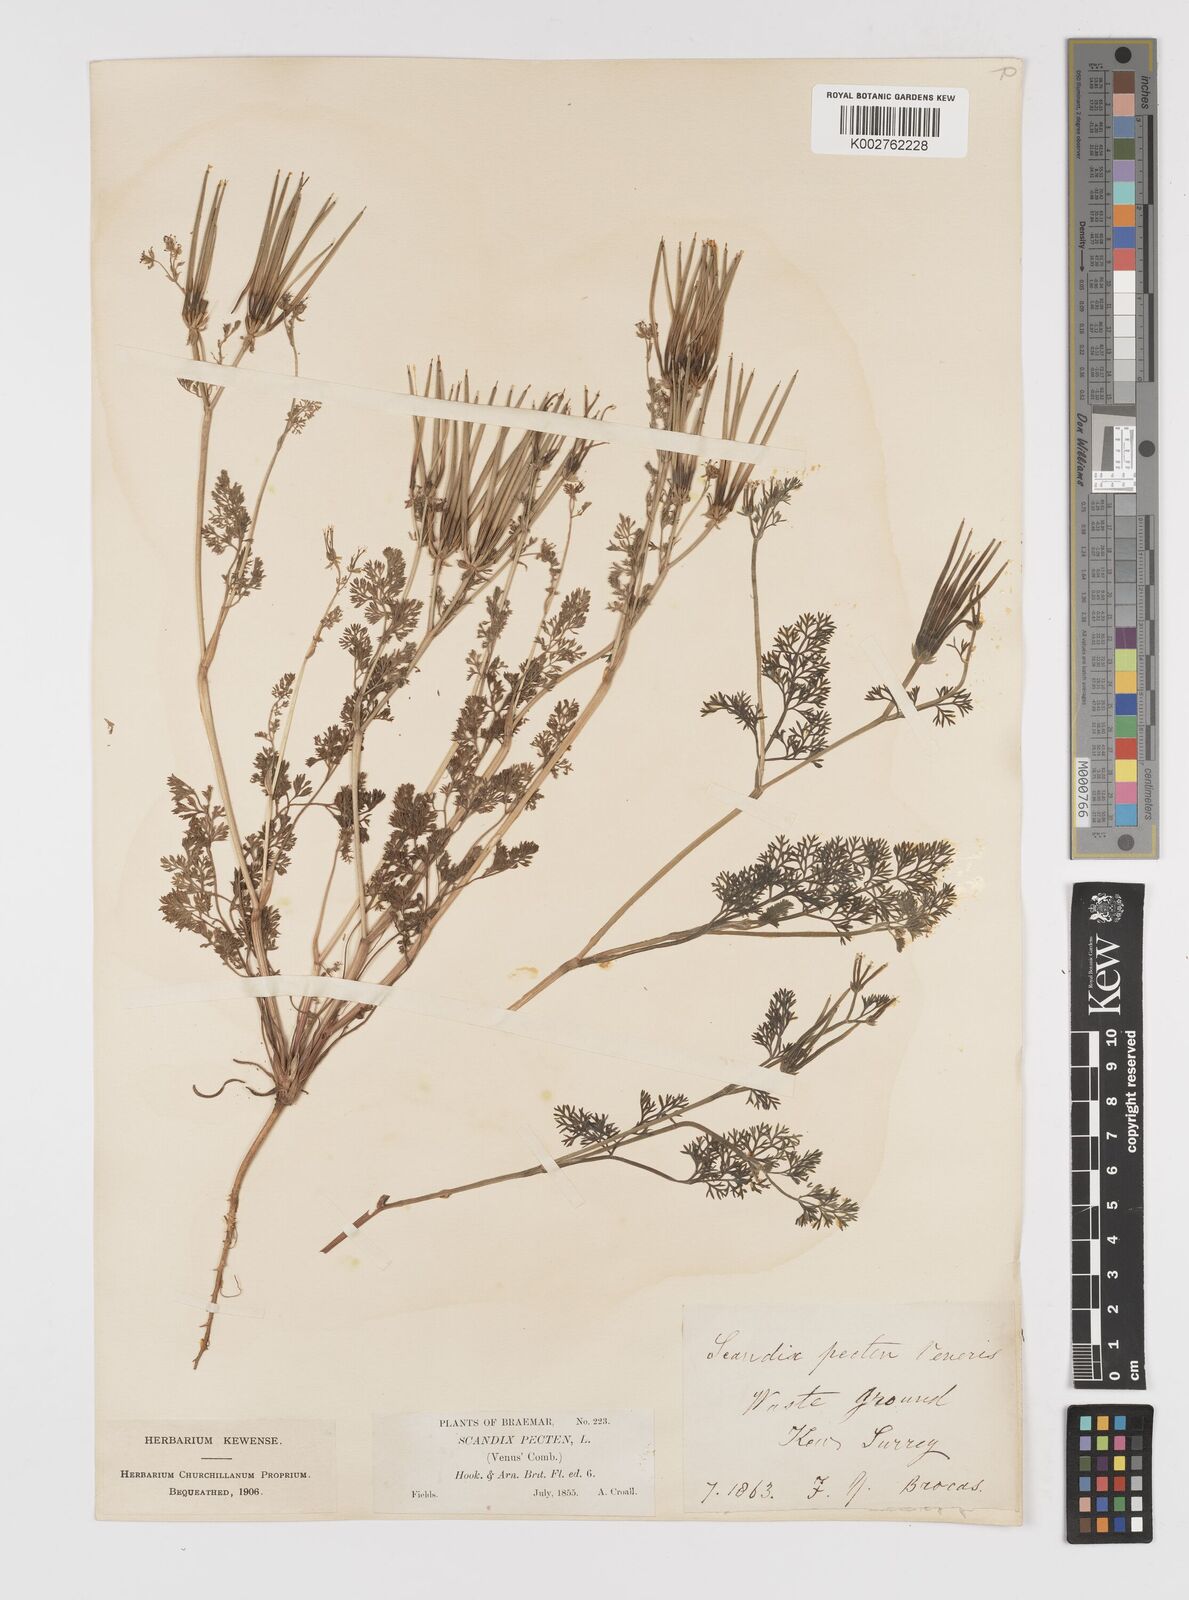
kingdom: Plantae
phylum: Tracheophyta
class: Magnoliopsida
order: Apiales
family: Apiaceae
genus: Scandix
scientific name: Scandix pecten-veneris
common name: Shepherd's-needle
